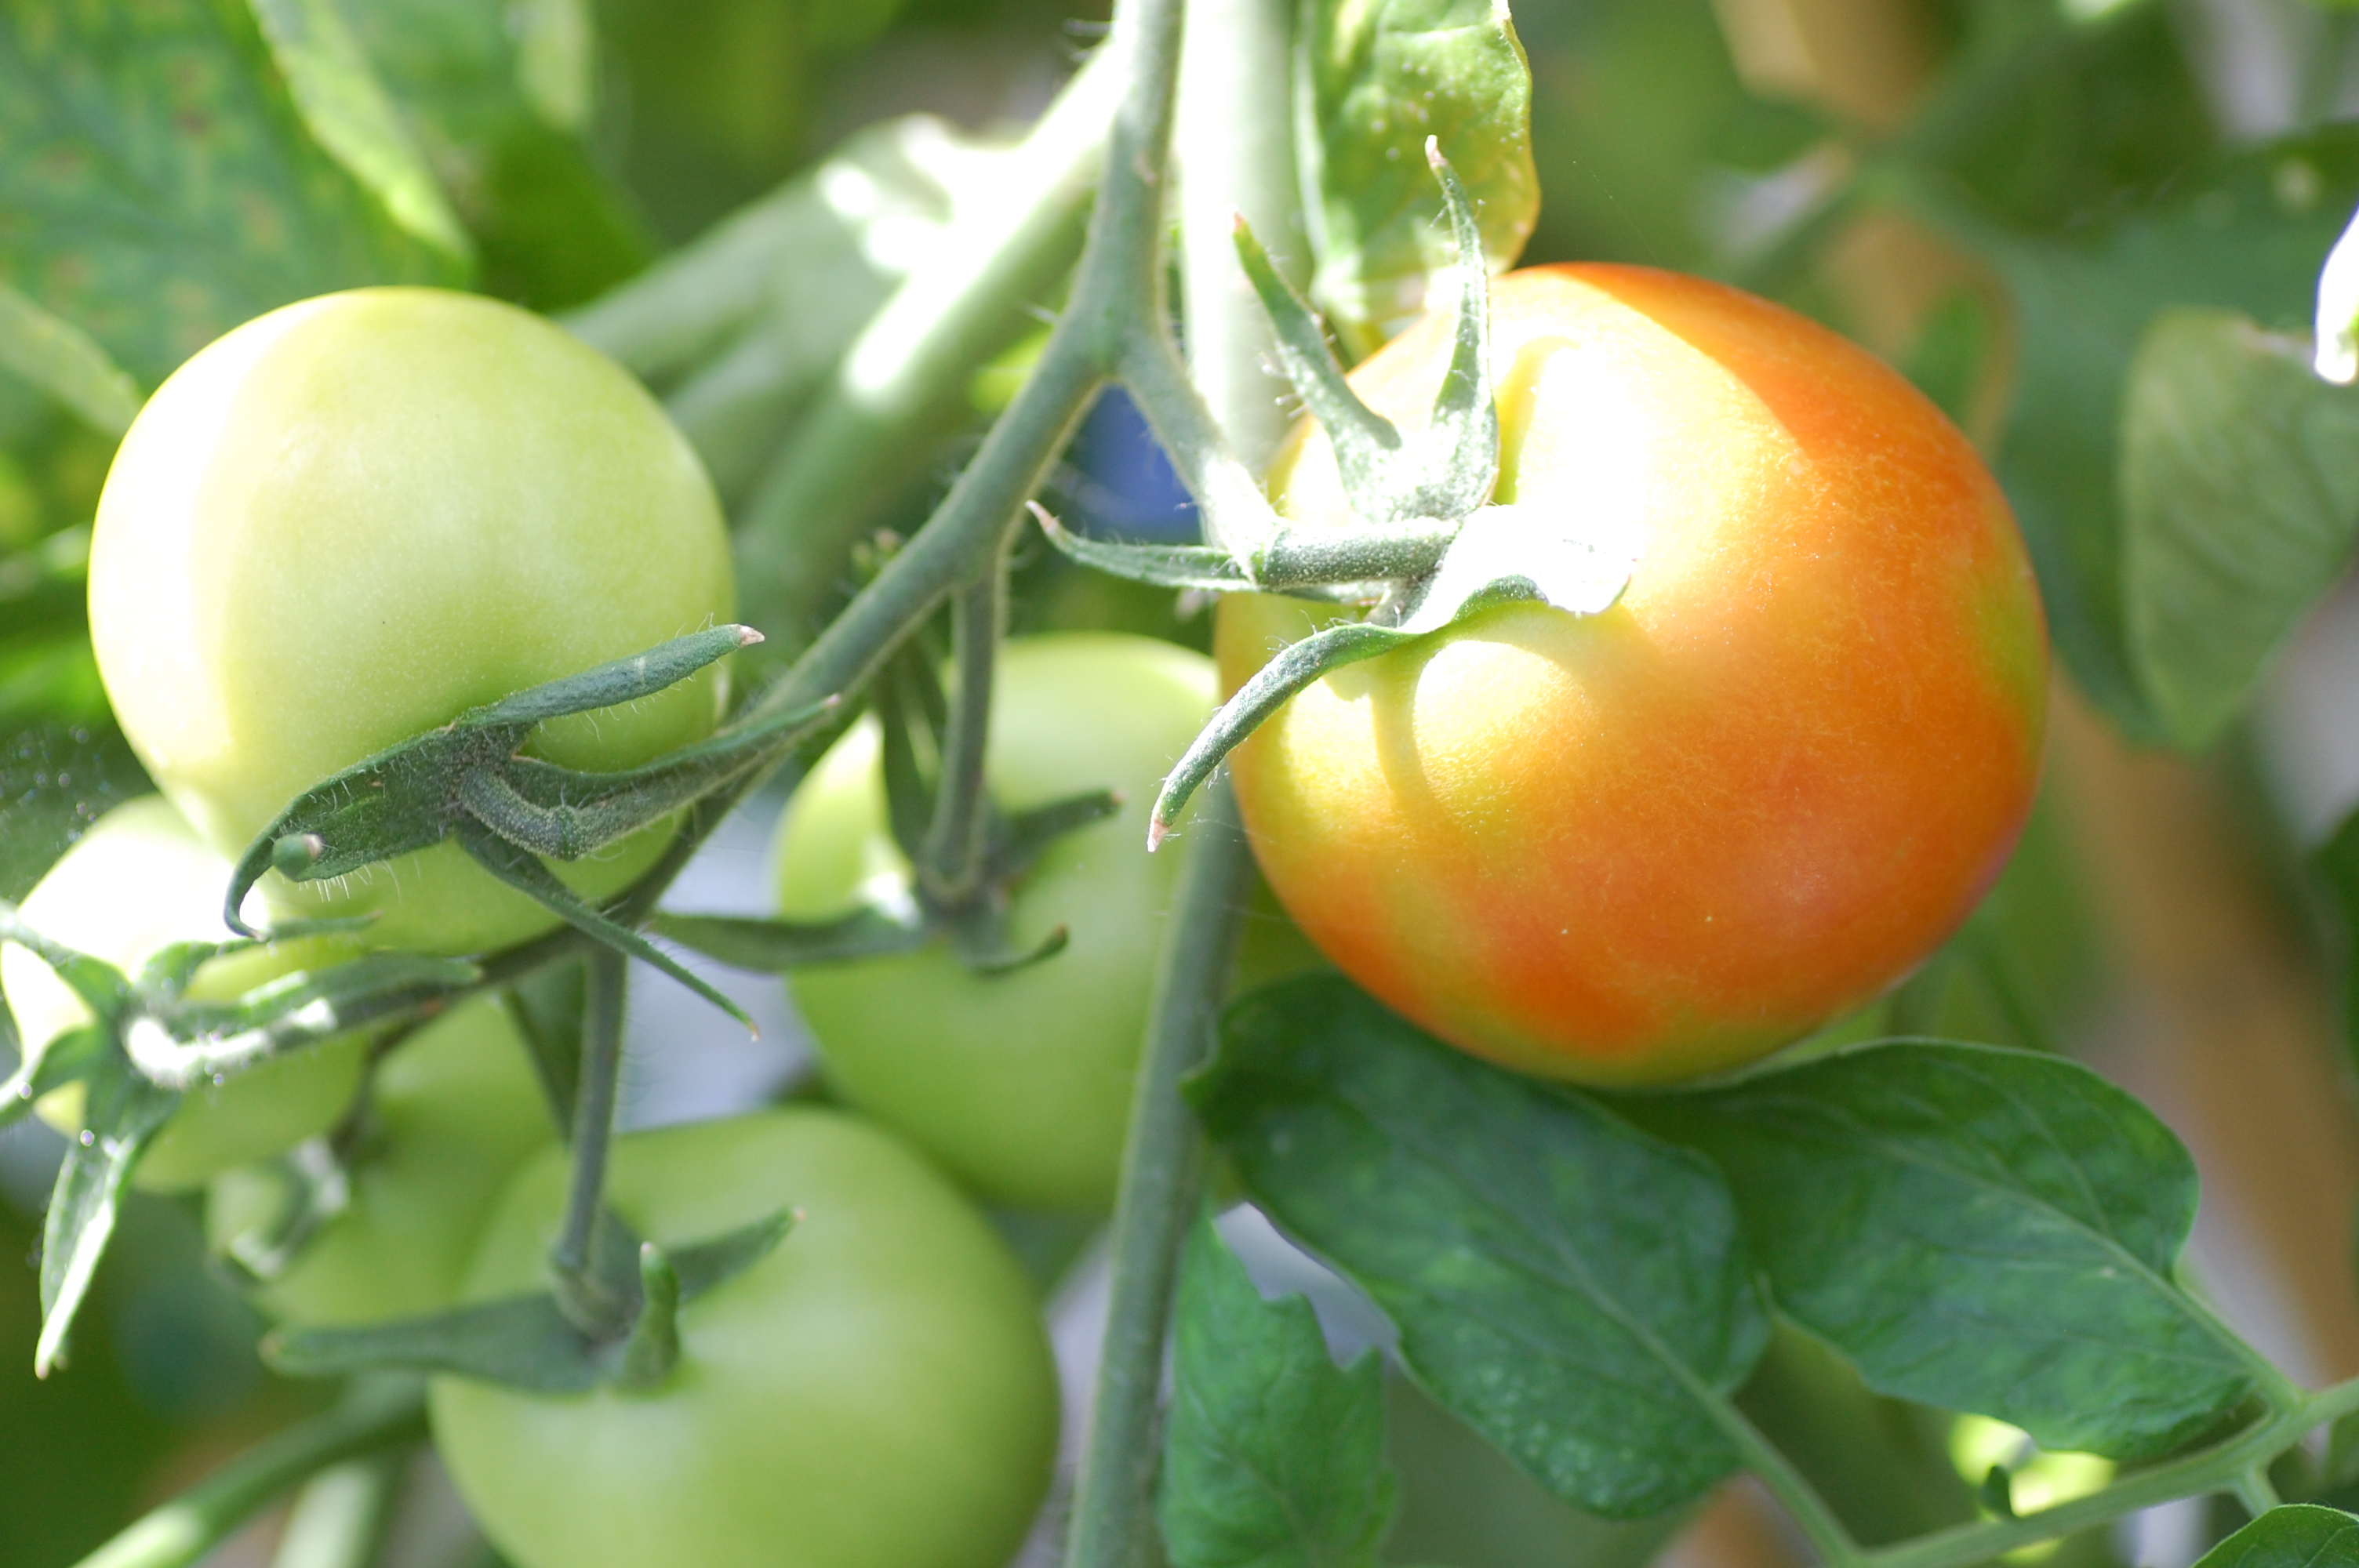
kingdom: Plantae
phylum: Tracheophyta
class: Magnoliopsida
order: Solanales
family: Solanaceae
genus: Solanum
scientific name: Solanum lycopersicum
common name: Garden tomato
